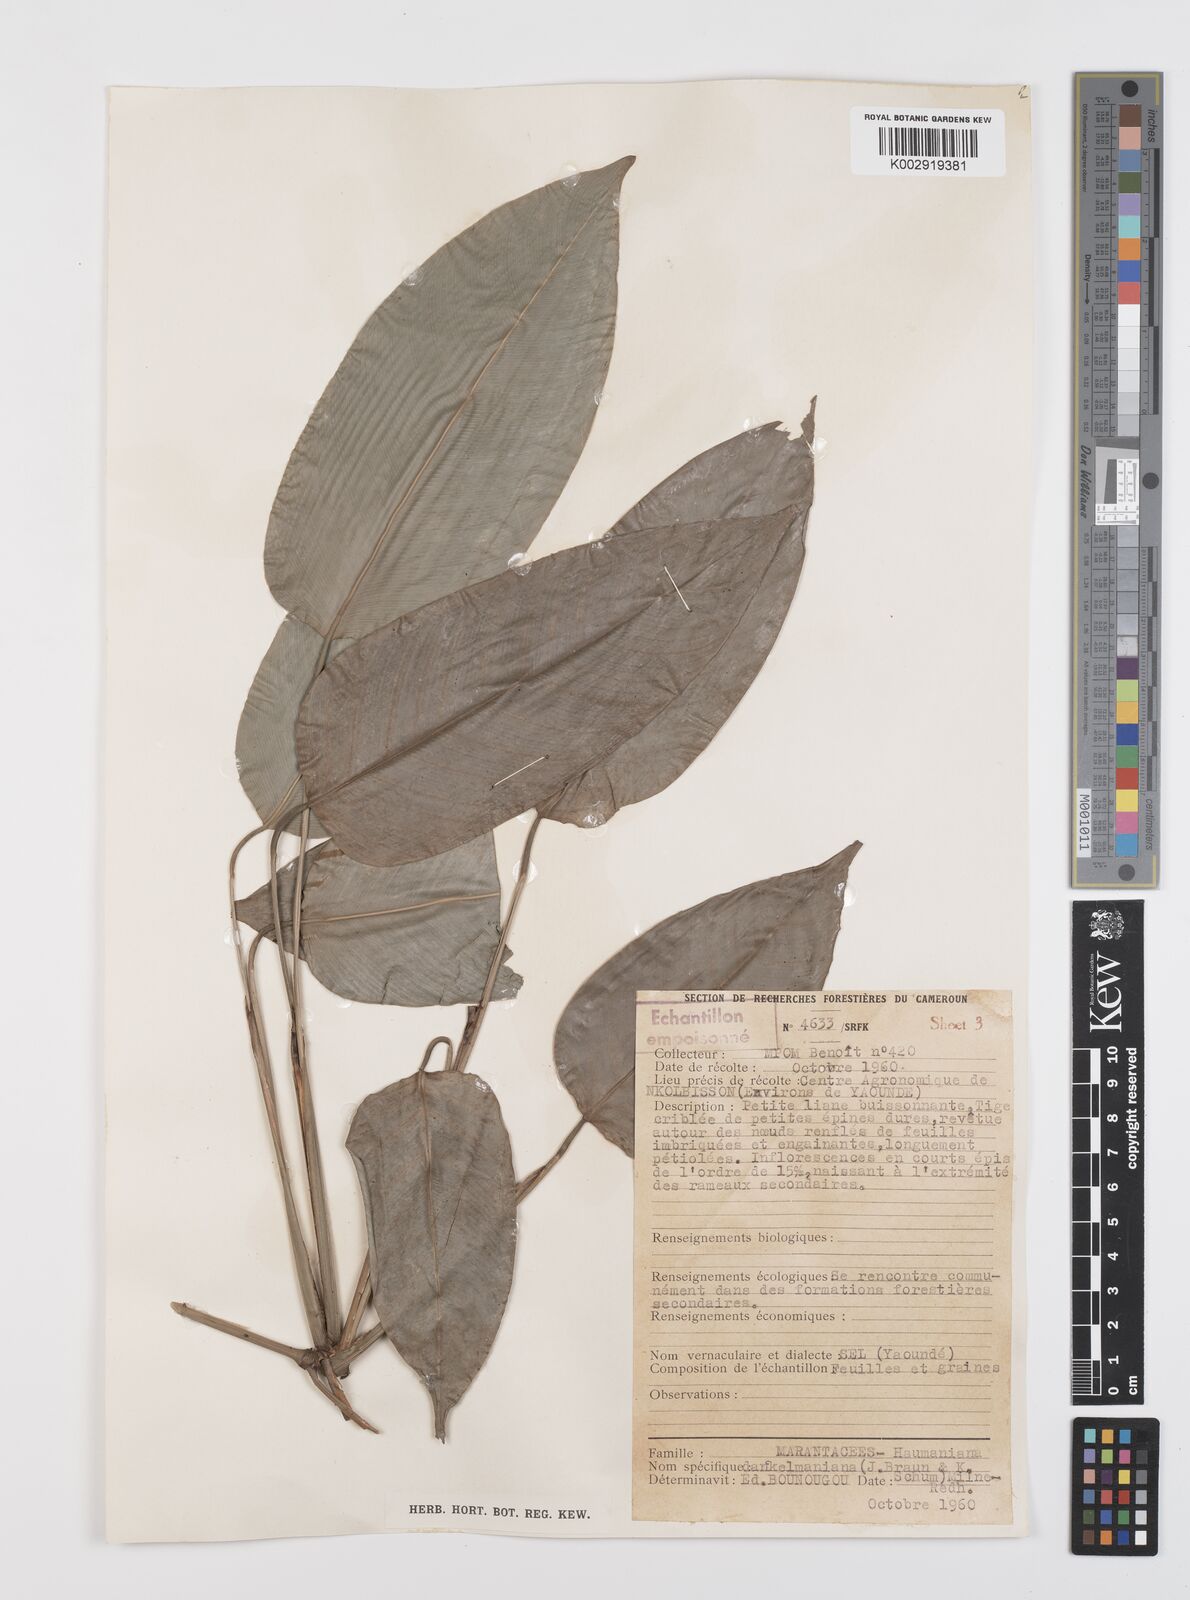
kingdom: Plantae
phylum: Tracheophyta
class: Liliopsida
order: Zingiberales
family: Marantaceae
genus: Haumania
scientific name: Haumania danckelmaniana
